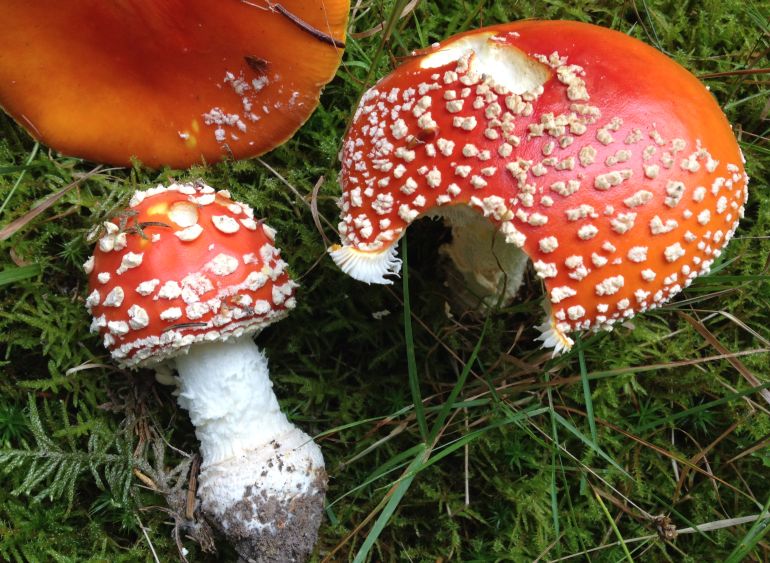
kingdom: Fungi
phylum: Basidiomycota
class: Agaricomycetes
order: Agaricales
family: Amanitaceae
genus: Amanita
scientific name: Amanita muscaria
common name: rød fluesvamp
